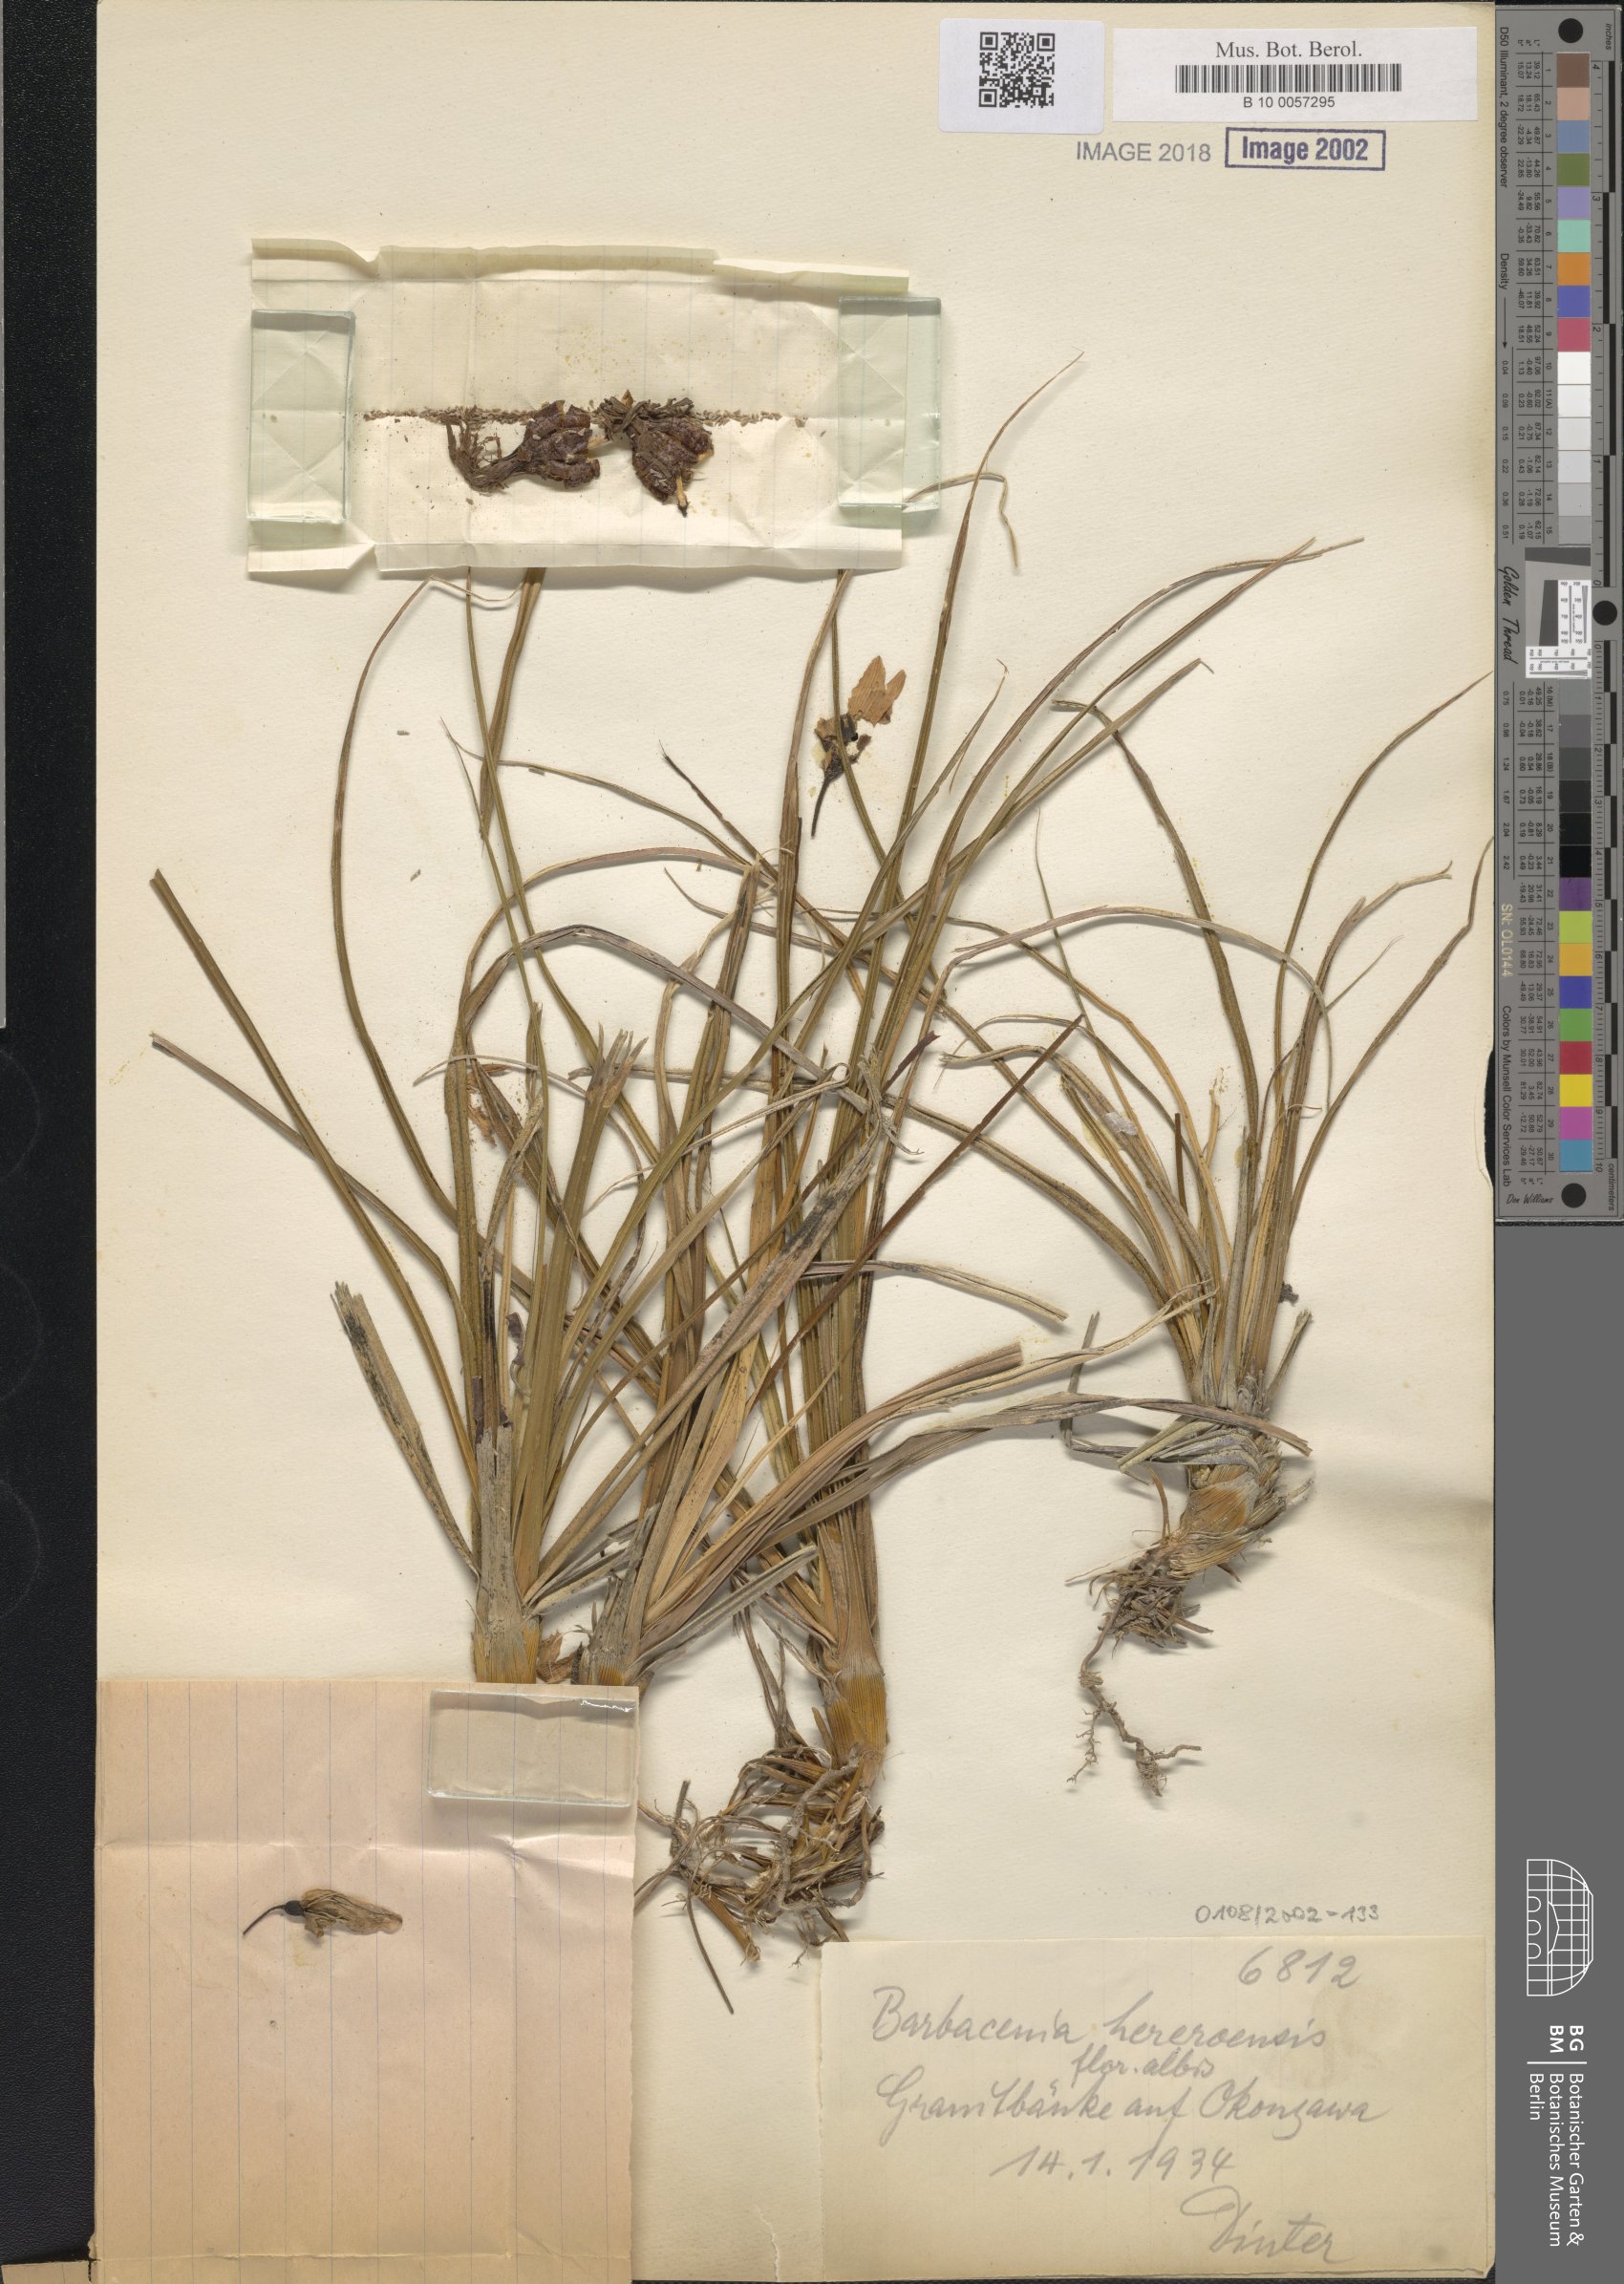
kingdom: Plantae
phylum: Tracheophyta
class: Liliopsida
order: Pandanales
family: Velloziaceae
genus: Xerophyta
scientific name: Xerophyta rosea
